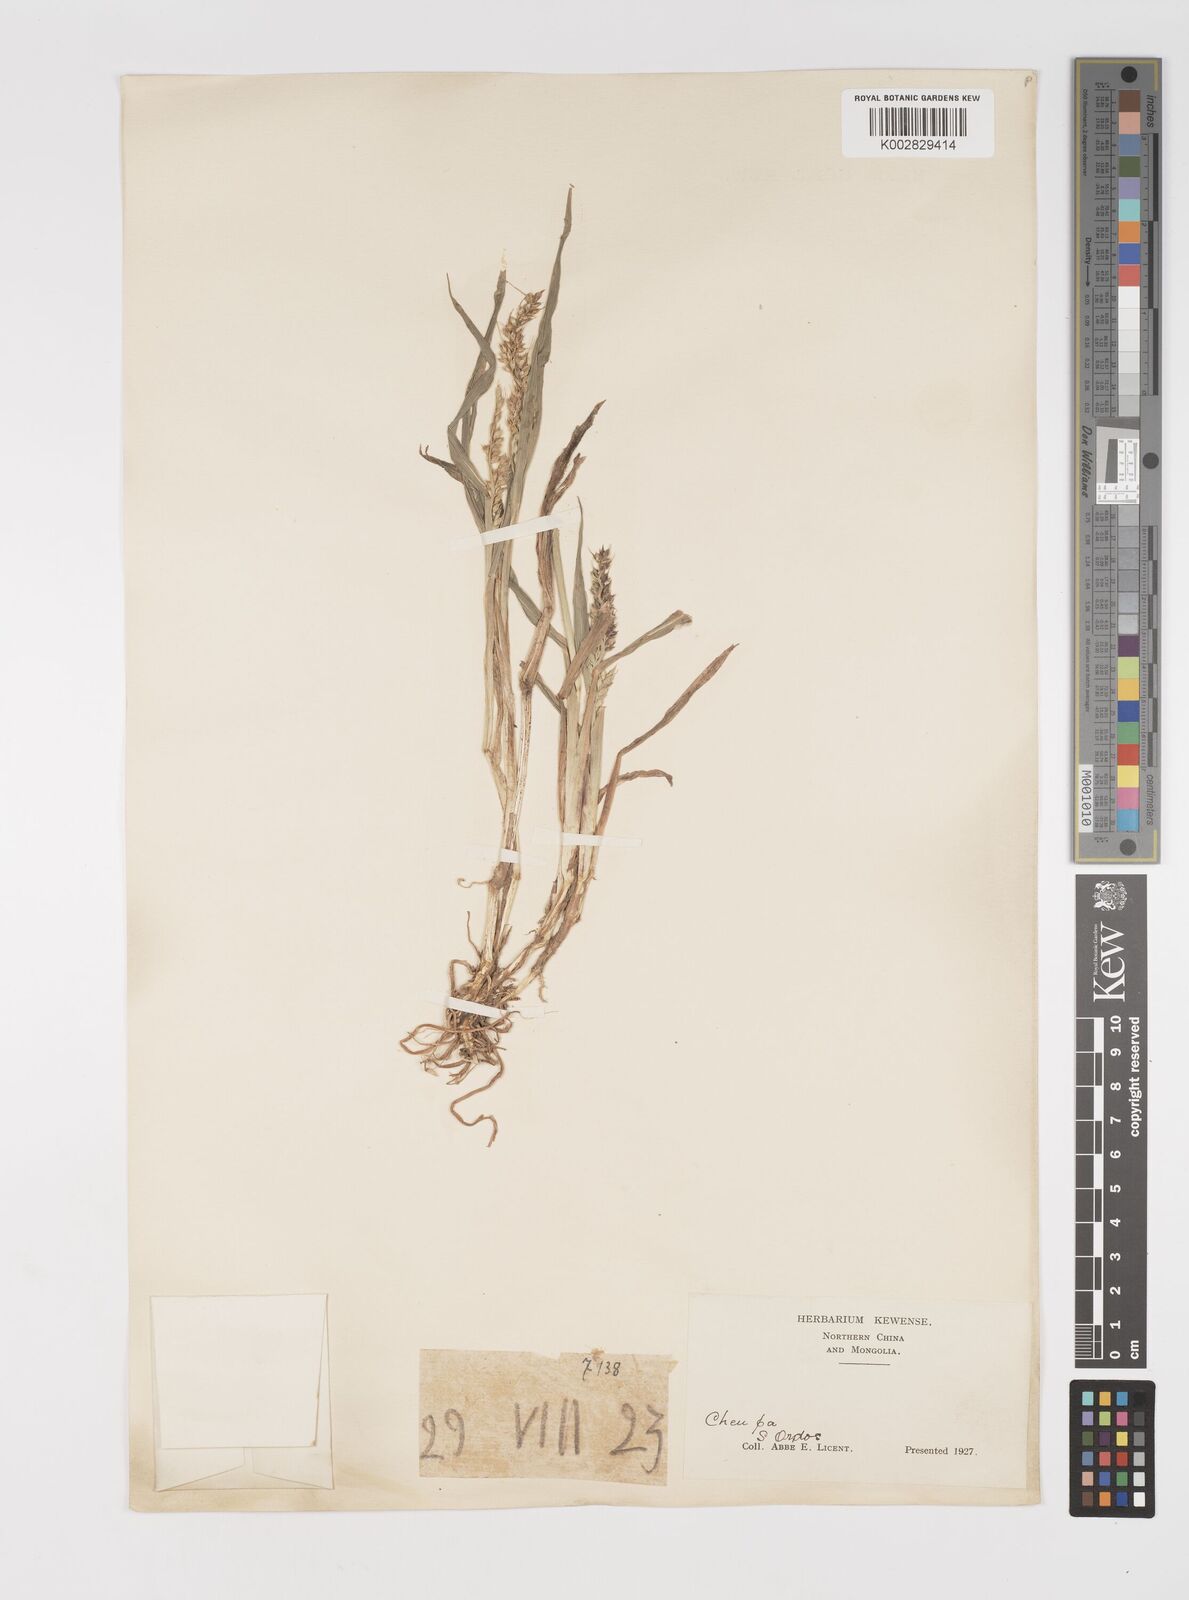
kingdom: Plantae
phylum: Tracheophyta
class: Liliopsida
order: Poales
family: Poaceae
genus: Echinochloa
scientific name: Echinochloa crus-galli
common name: Cockspur
